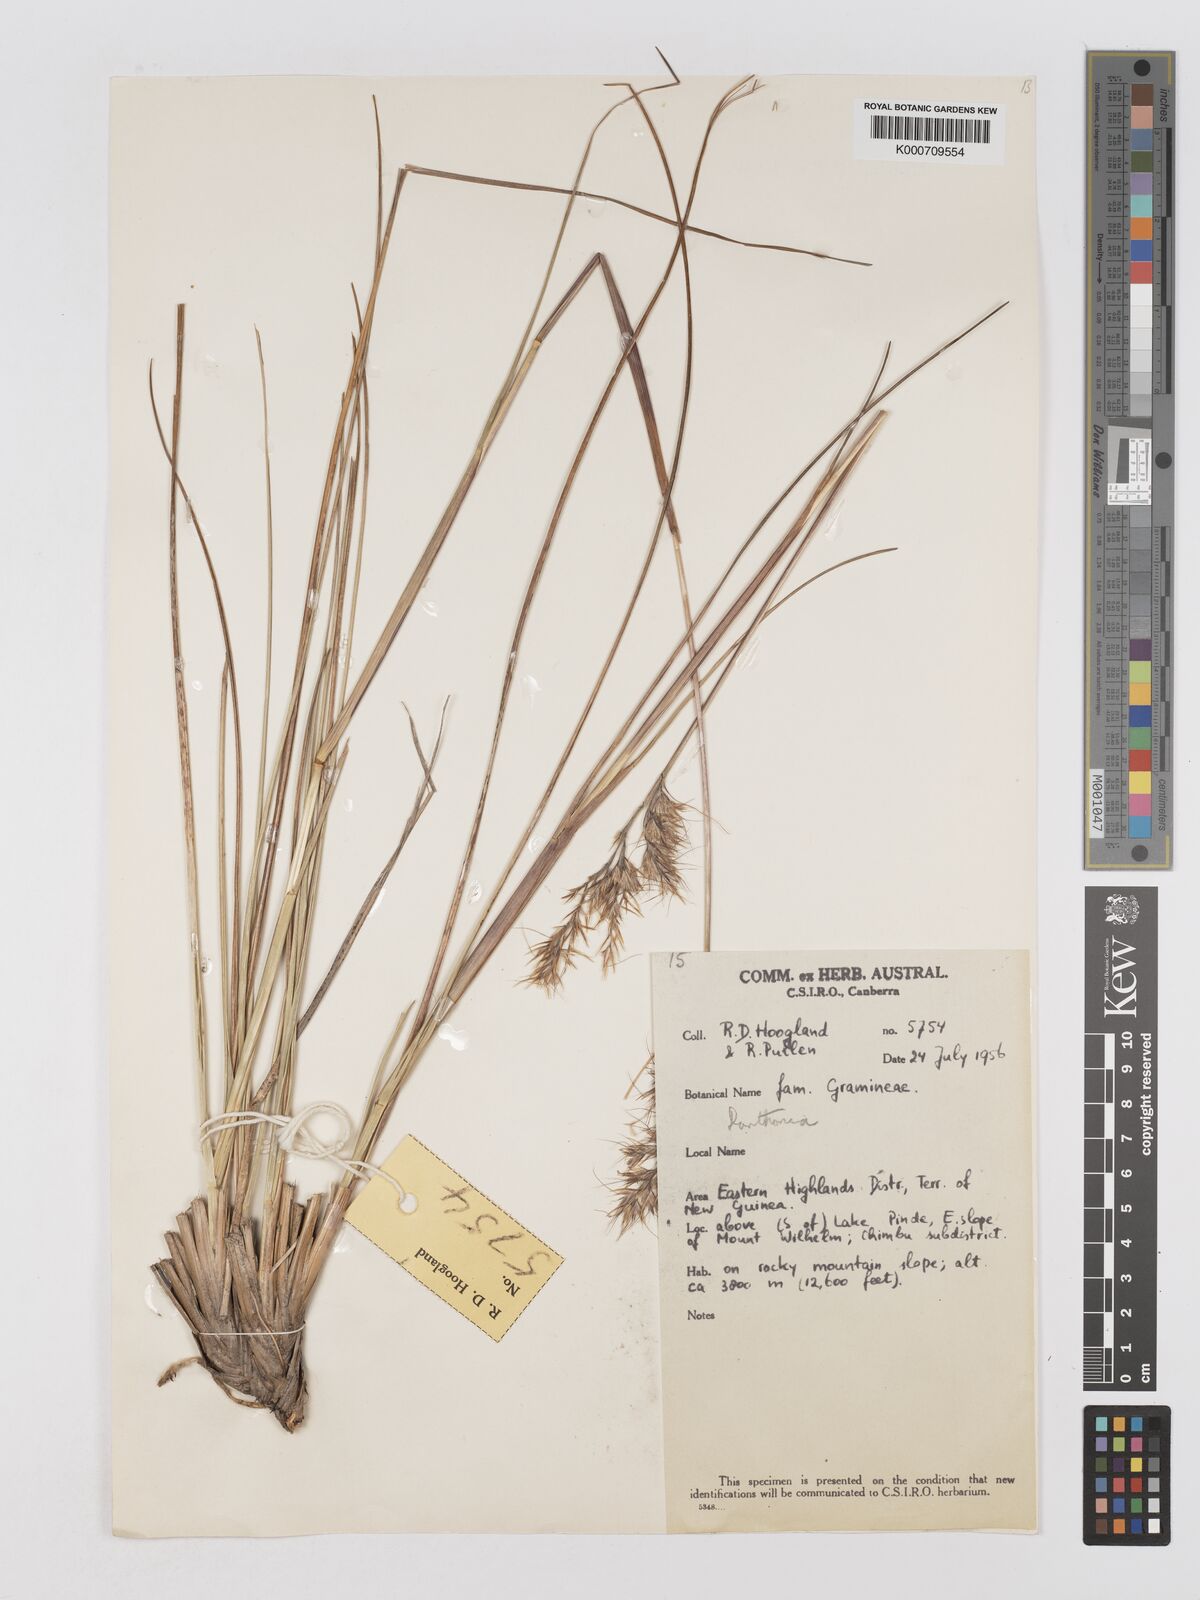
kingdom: Plantae
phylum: Tracheophyta
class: Liliopsida
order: Poales
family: Poaceae
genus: Chimaerochloa
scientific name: Chimaerochloa archboldii
